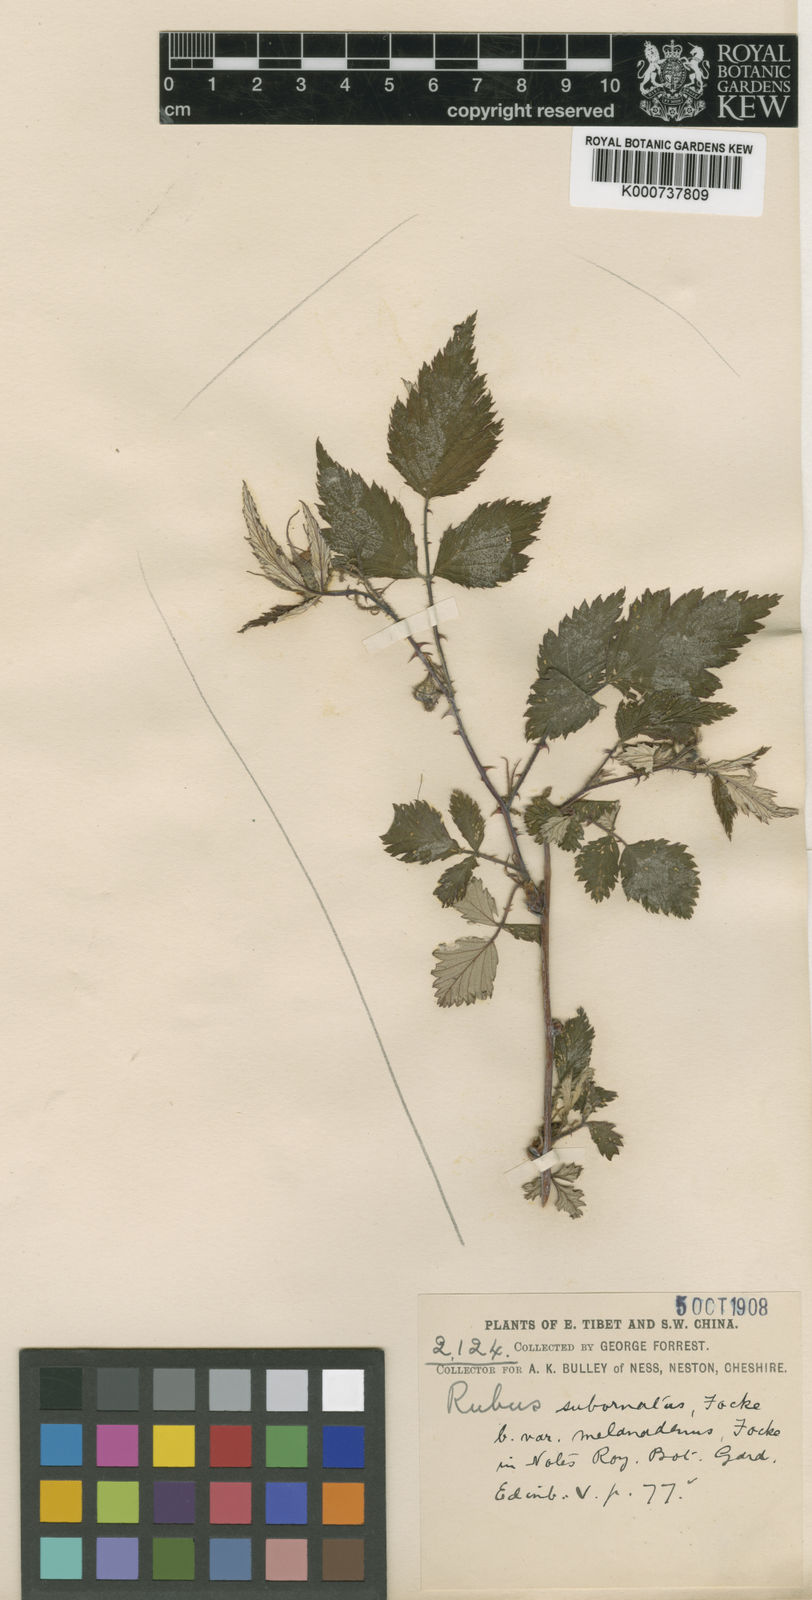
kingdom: Plantae
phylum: Tracheophyta
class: Magnoliopsida
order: Rosales
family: Rosaceae
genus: Rubus
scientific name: Rubus subornatus
